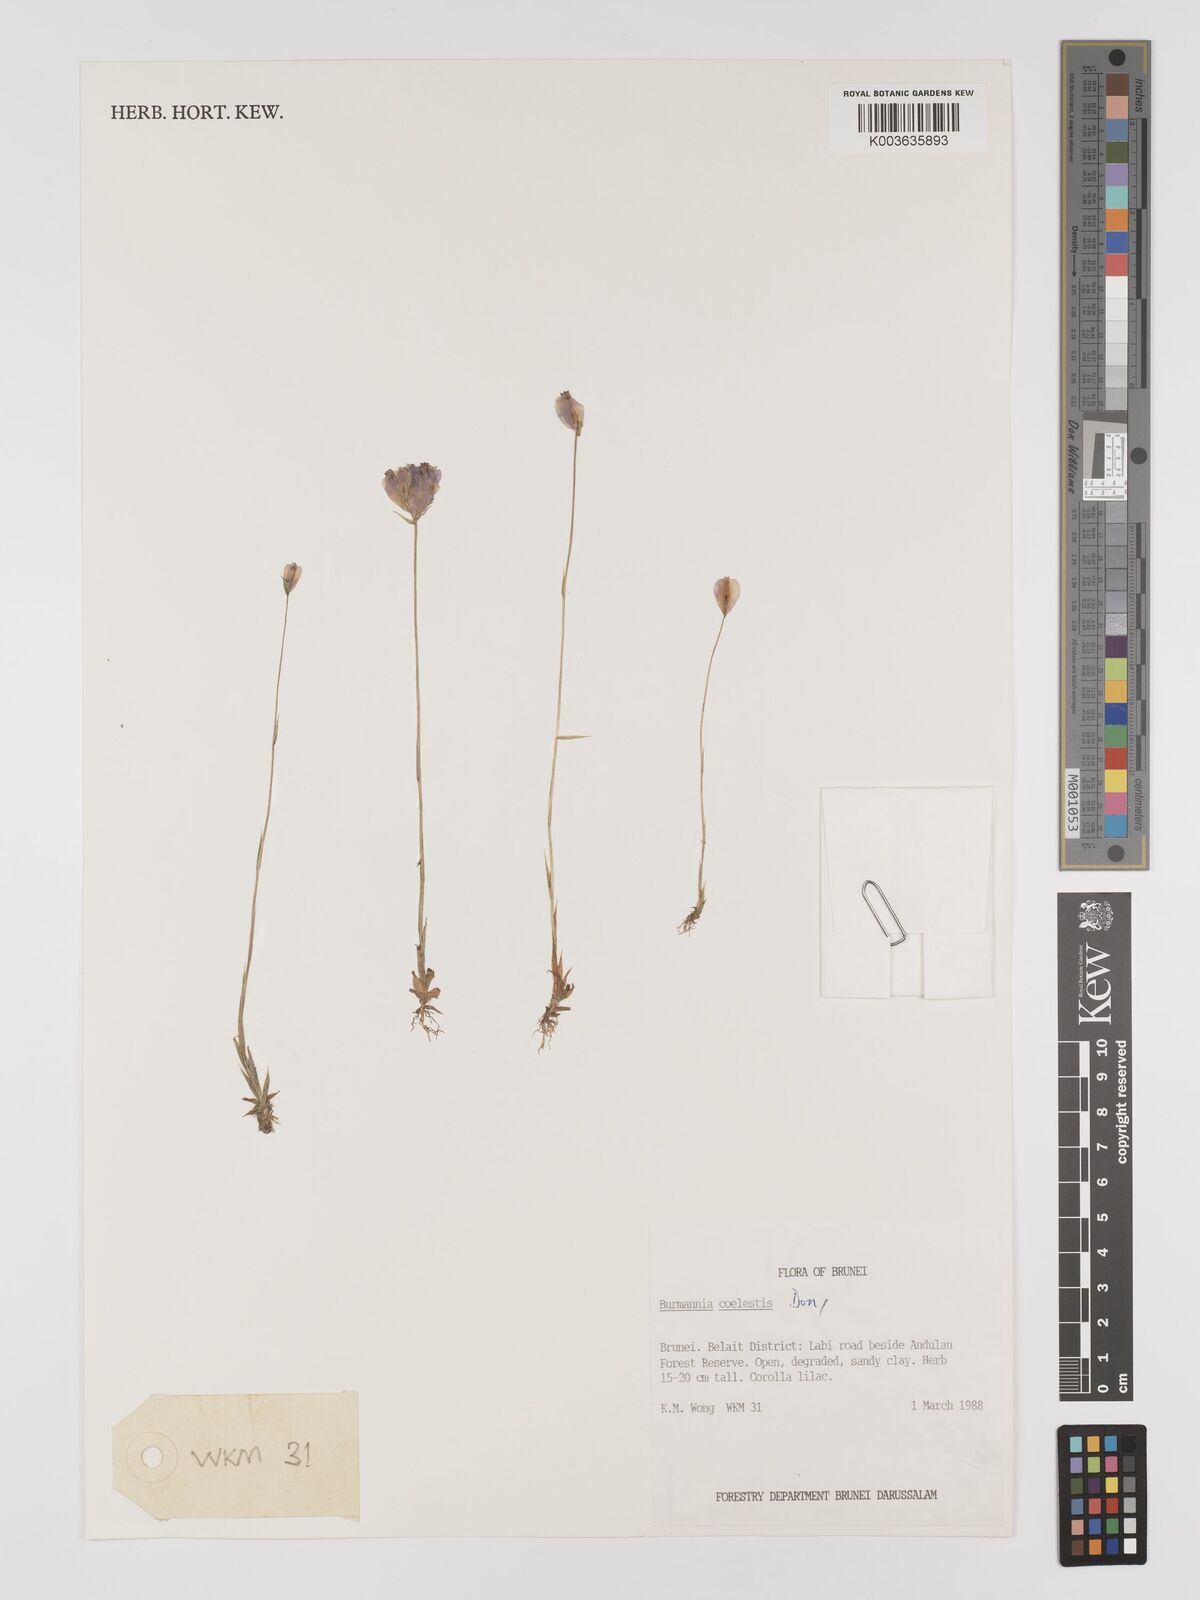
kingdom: Plantae
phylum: Tracheophyta
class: Liliopsida
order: Dioscoreales
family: Burmanniaceae
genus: Burmannia
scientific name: Burmannia coelestis
